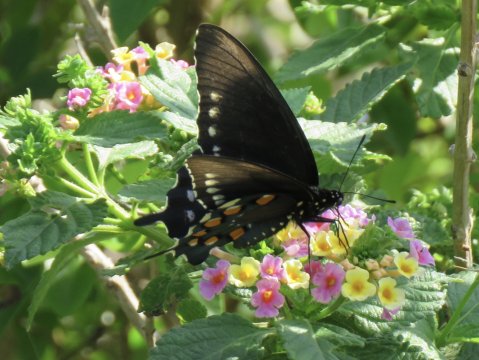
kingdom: Animalia
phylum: Arthropoda
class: Insecta
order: Lepidoptera
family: Papilionidae
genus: Battus
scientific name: Battus philenor
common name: Pipevine Swallowtail
